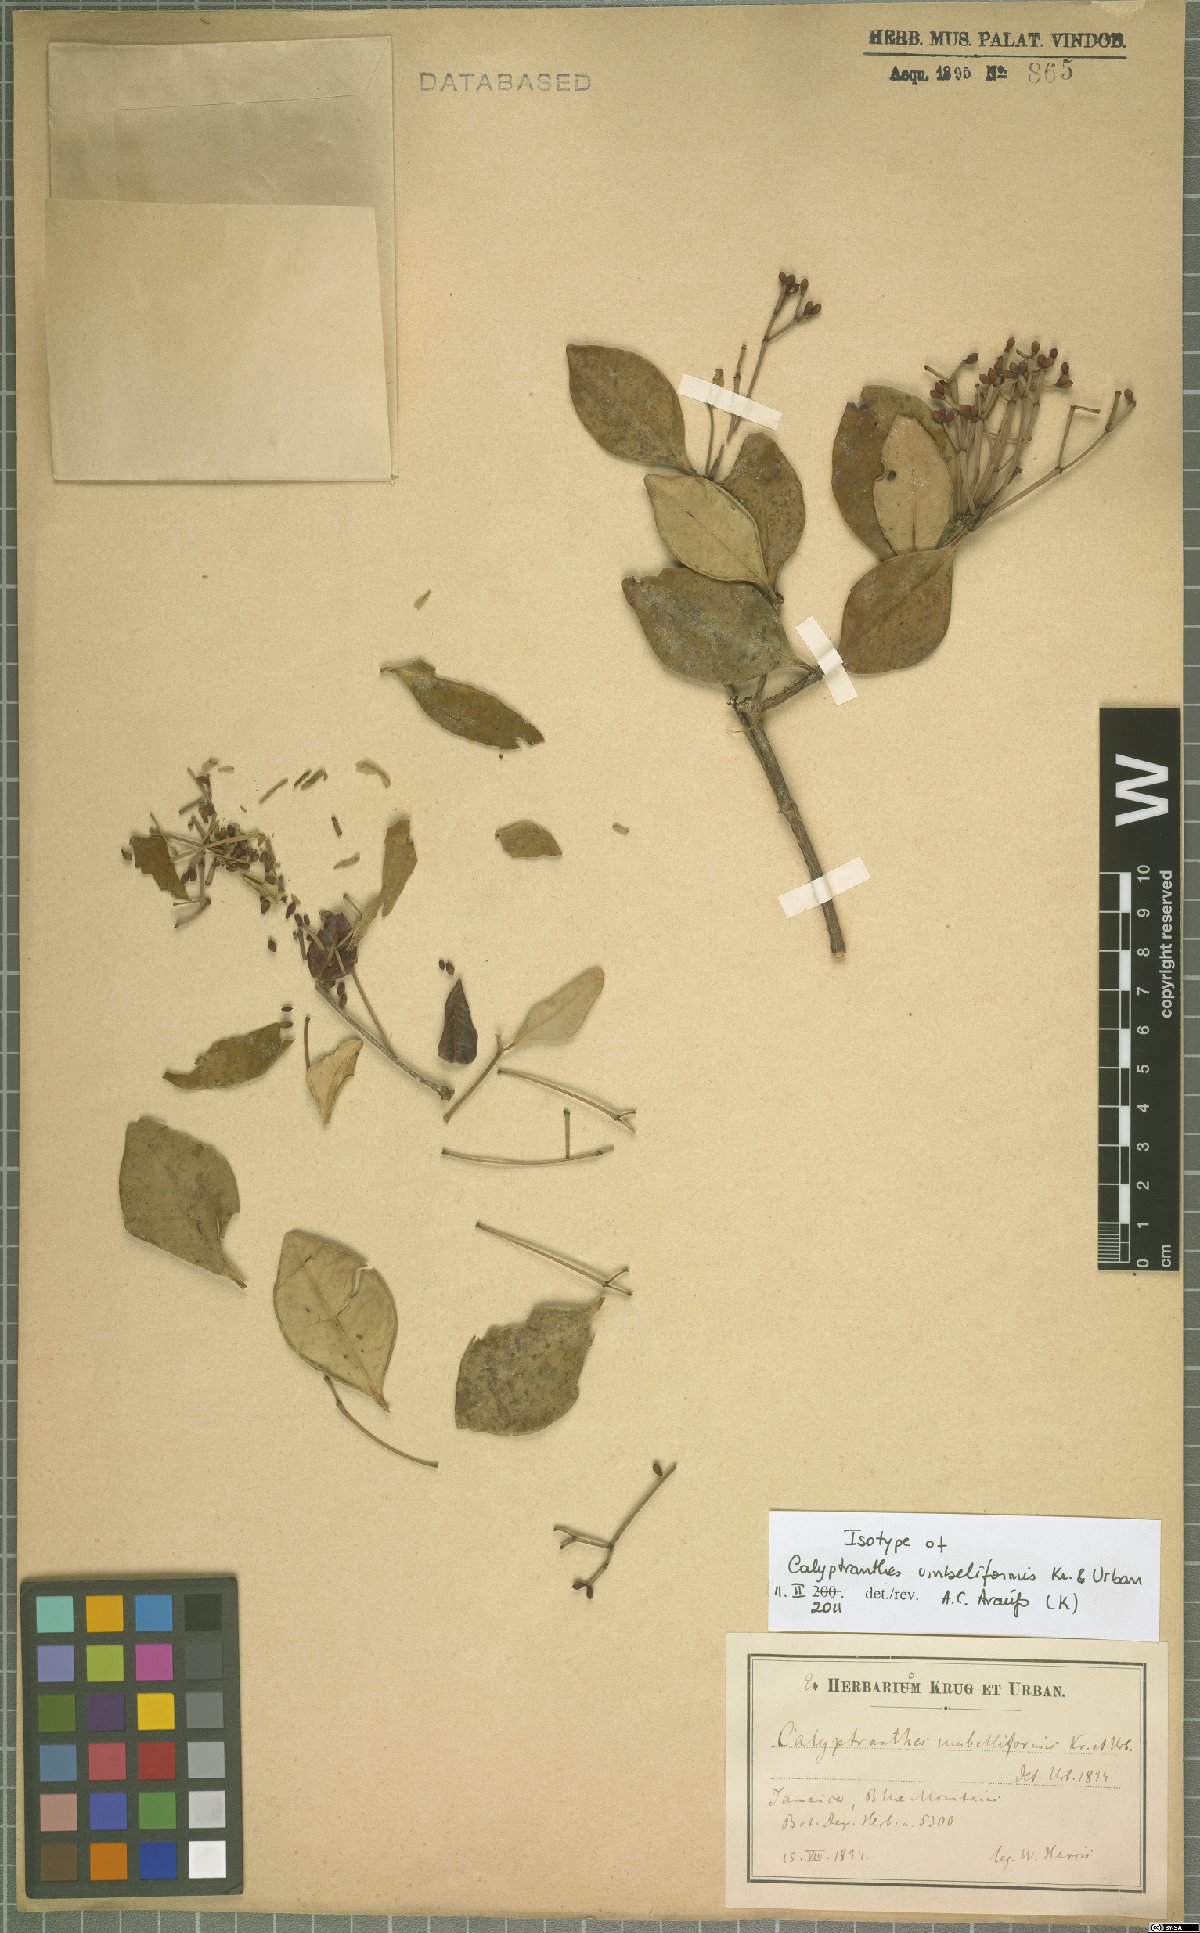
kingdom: Plantae
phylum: Tracheophyta
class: Magnoliopsida
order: Myrtales
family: Myrtaceae
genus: Myrcia
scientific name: Myrcia umbelliformis
